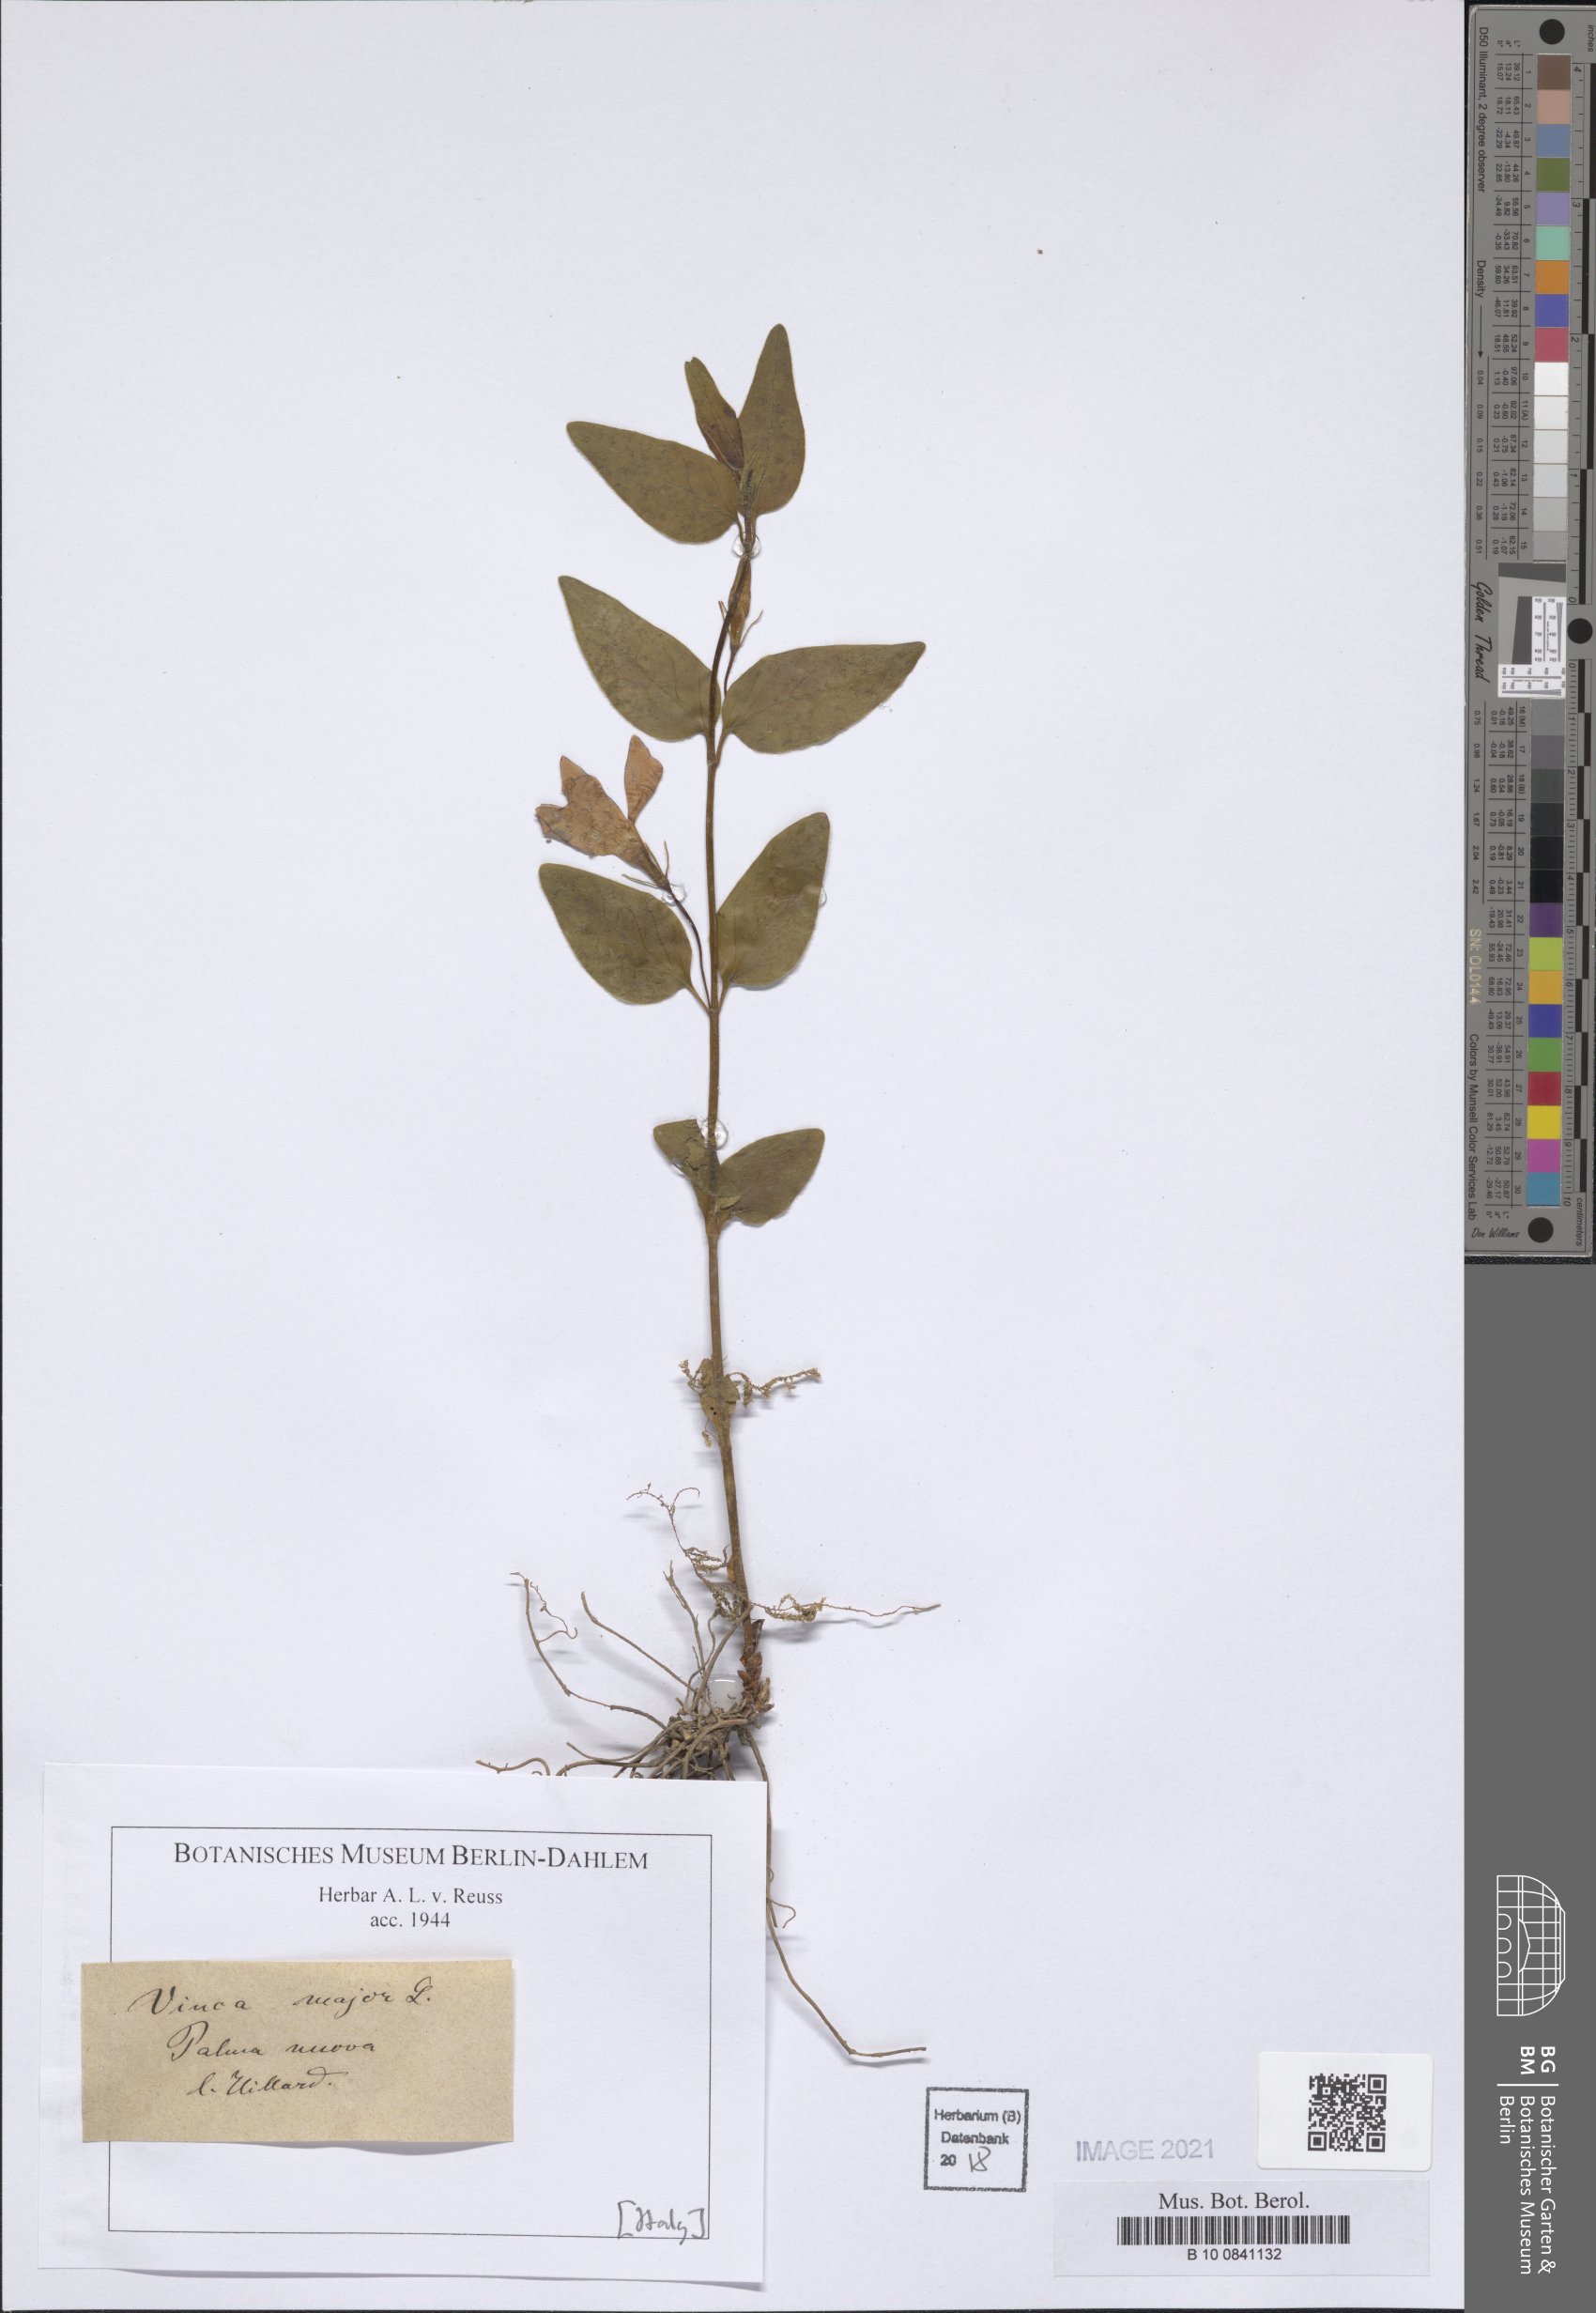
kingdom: Plantae
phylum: Tracheophyta
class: Magnoliopsida
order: Gentianales
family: Apocynaceae
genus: Vinca
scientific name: Vinca major
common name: Greater periwinkle
